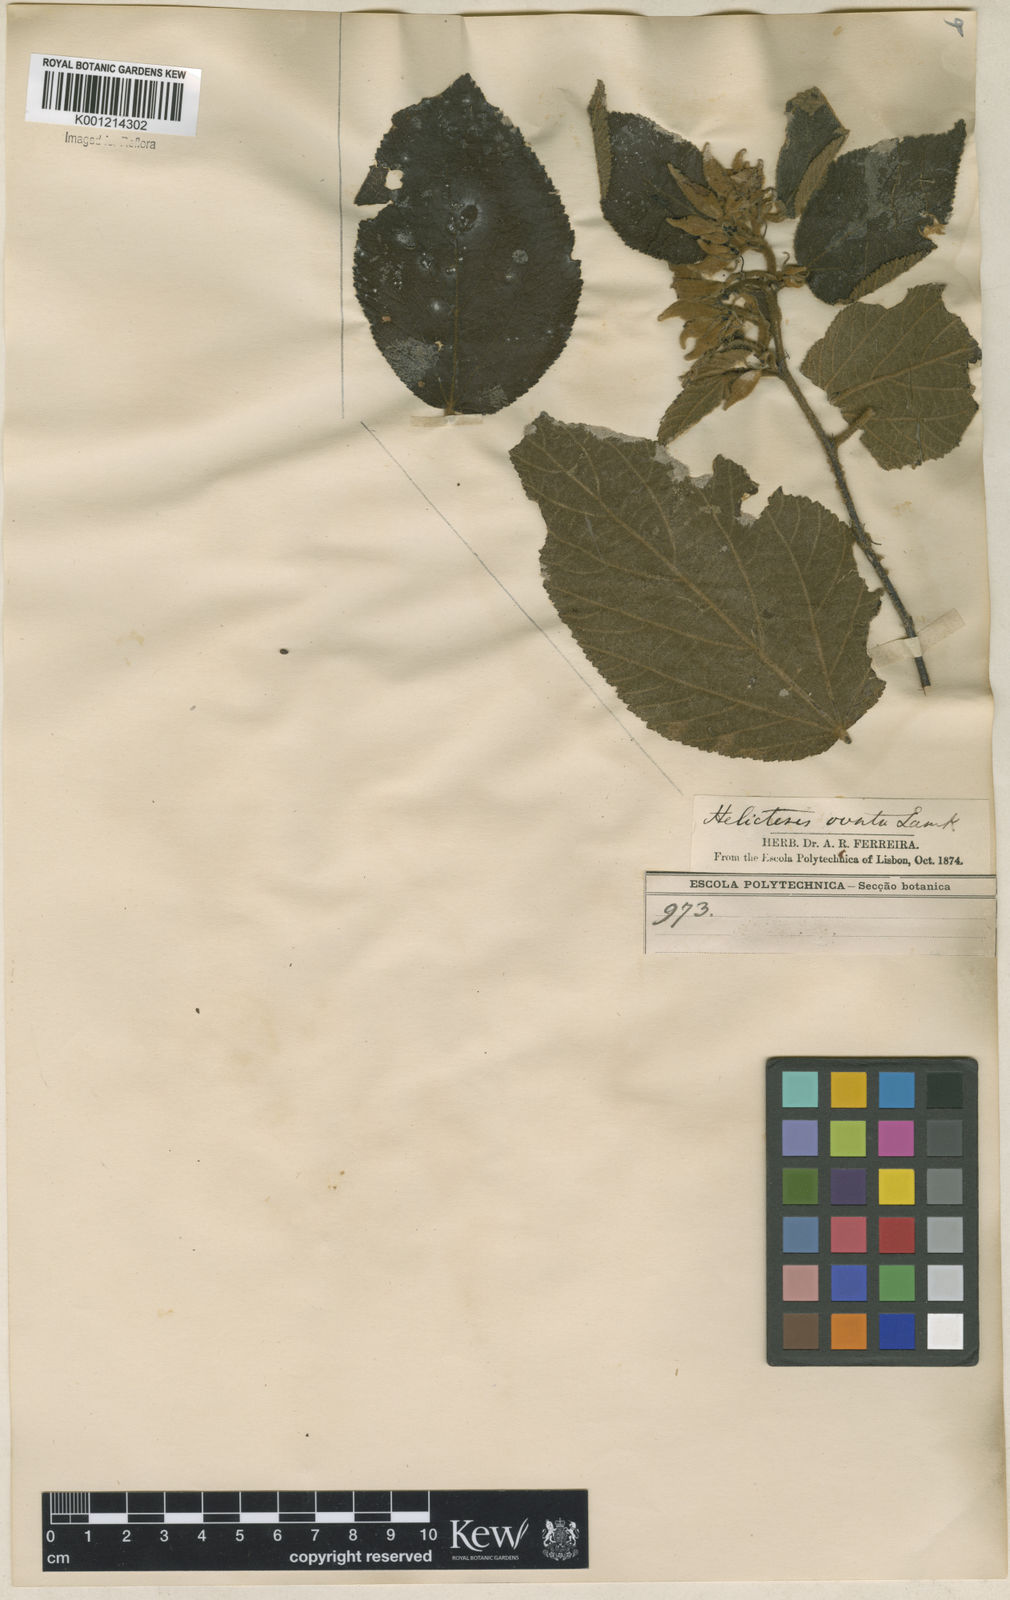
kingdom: Plantae
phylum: Tracheophyta
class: Magnoliopsida
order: Malvales
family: Malvaceae
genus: Helicteres
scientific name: Helicteres ovata
